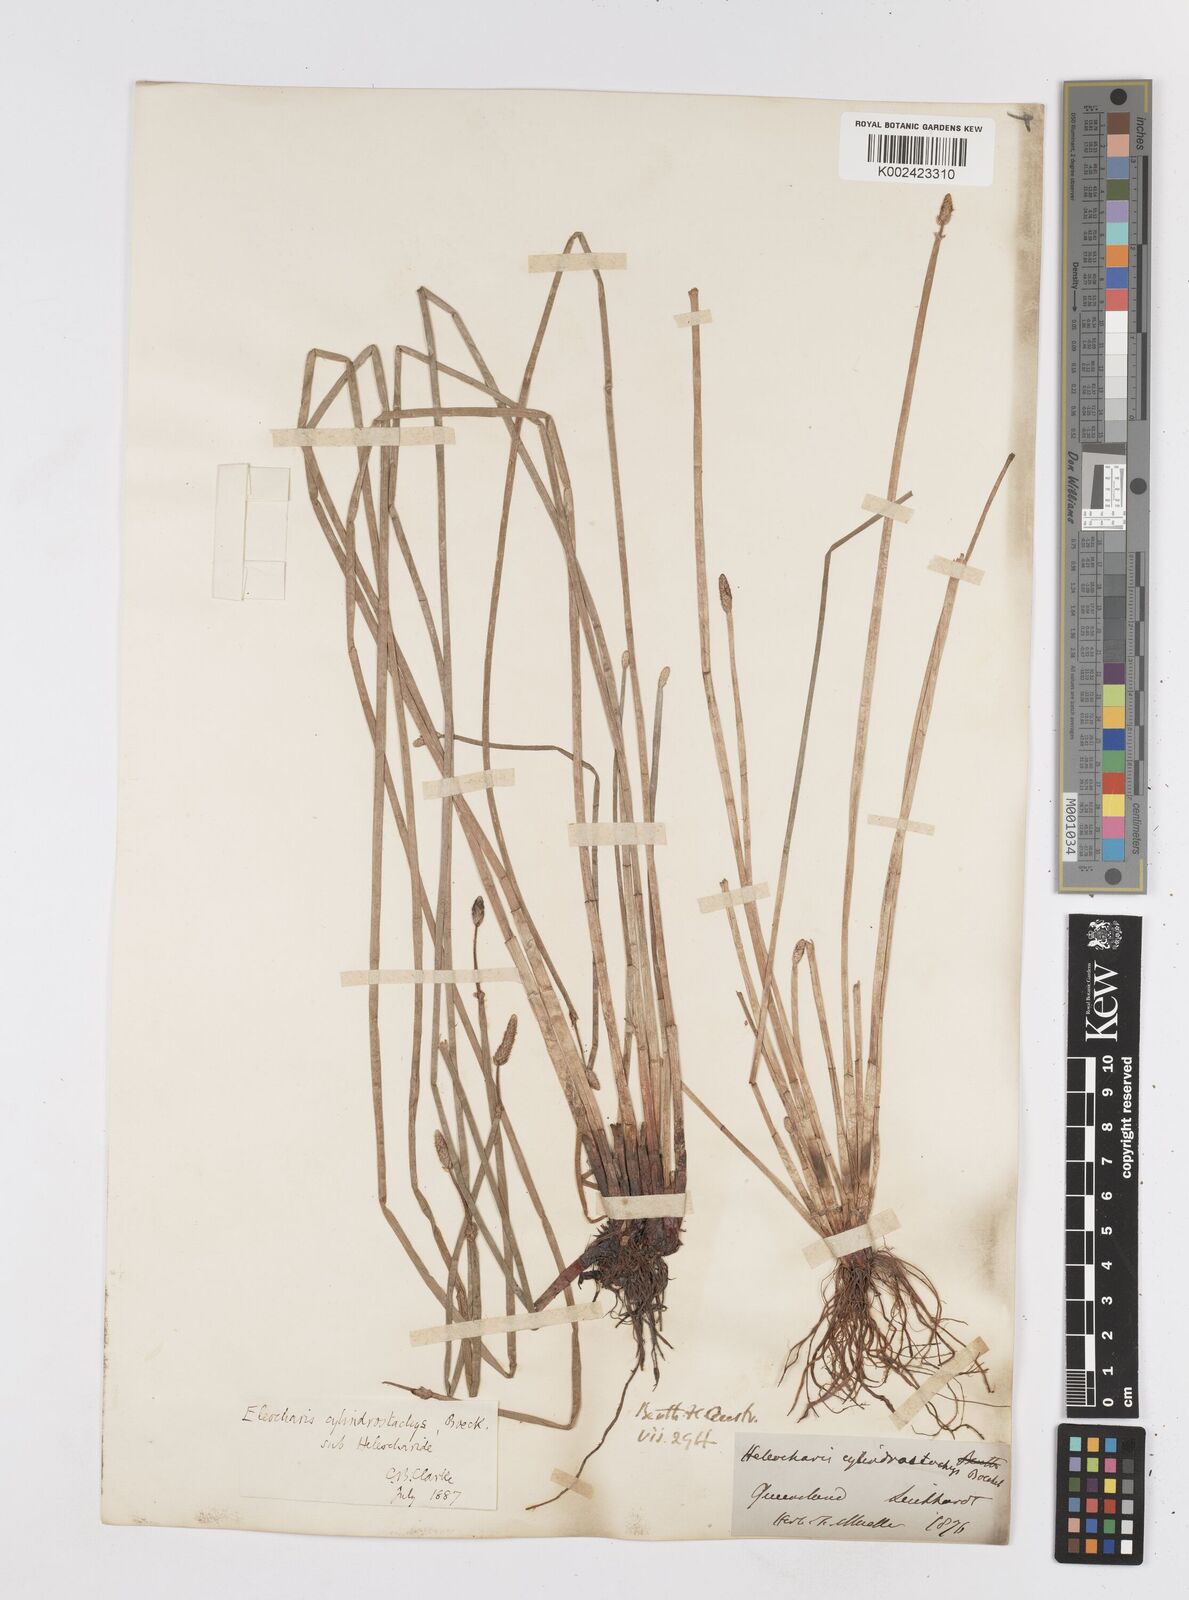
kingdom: Plantae
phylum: Tracheophyta
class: Liliopsida
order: Poales
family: Cyperaceae
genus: Eleocharis
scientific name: Eleocharis cylindrostachys
